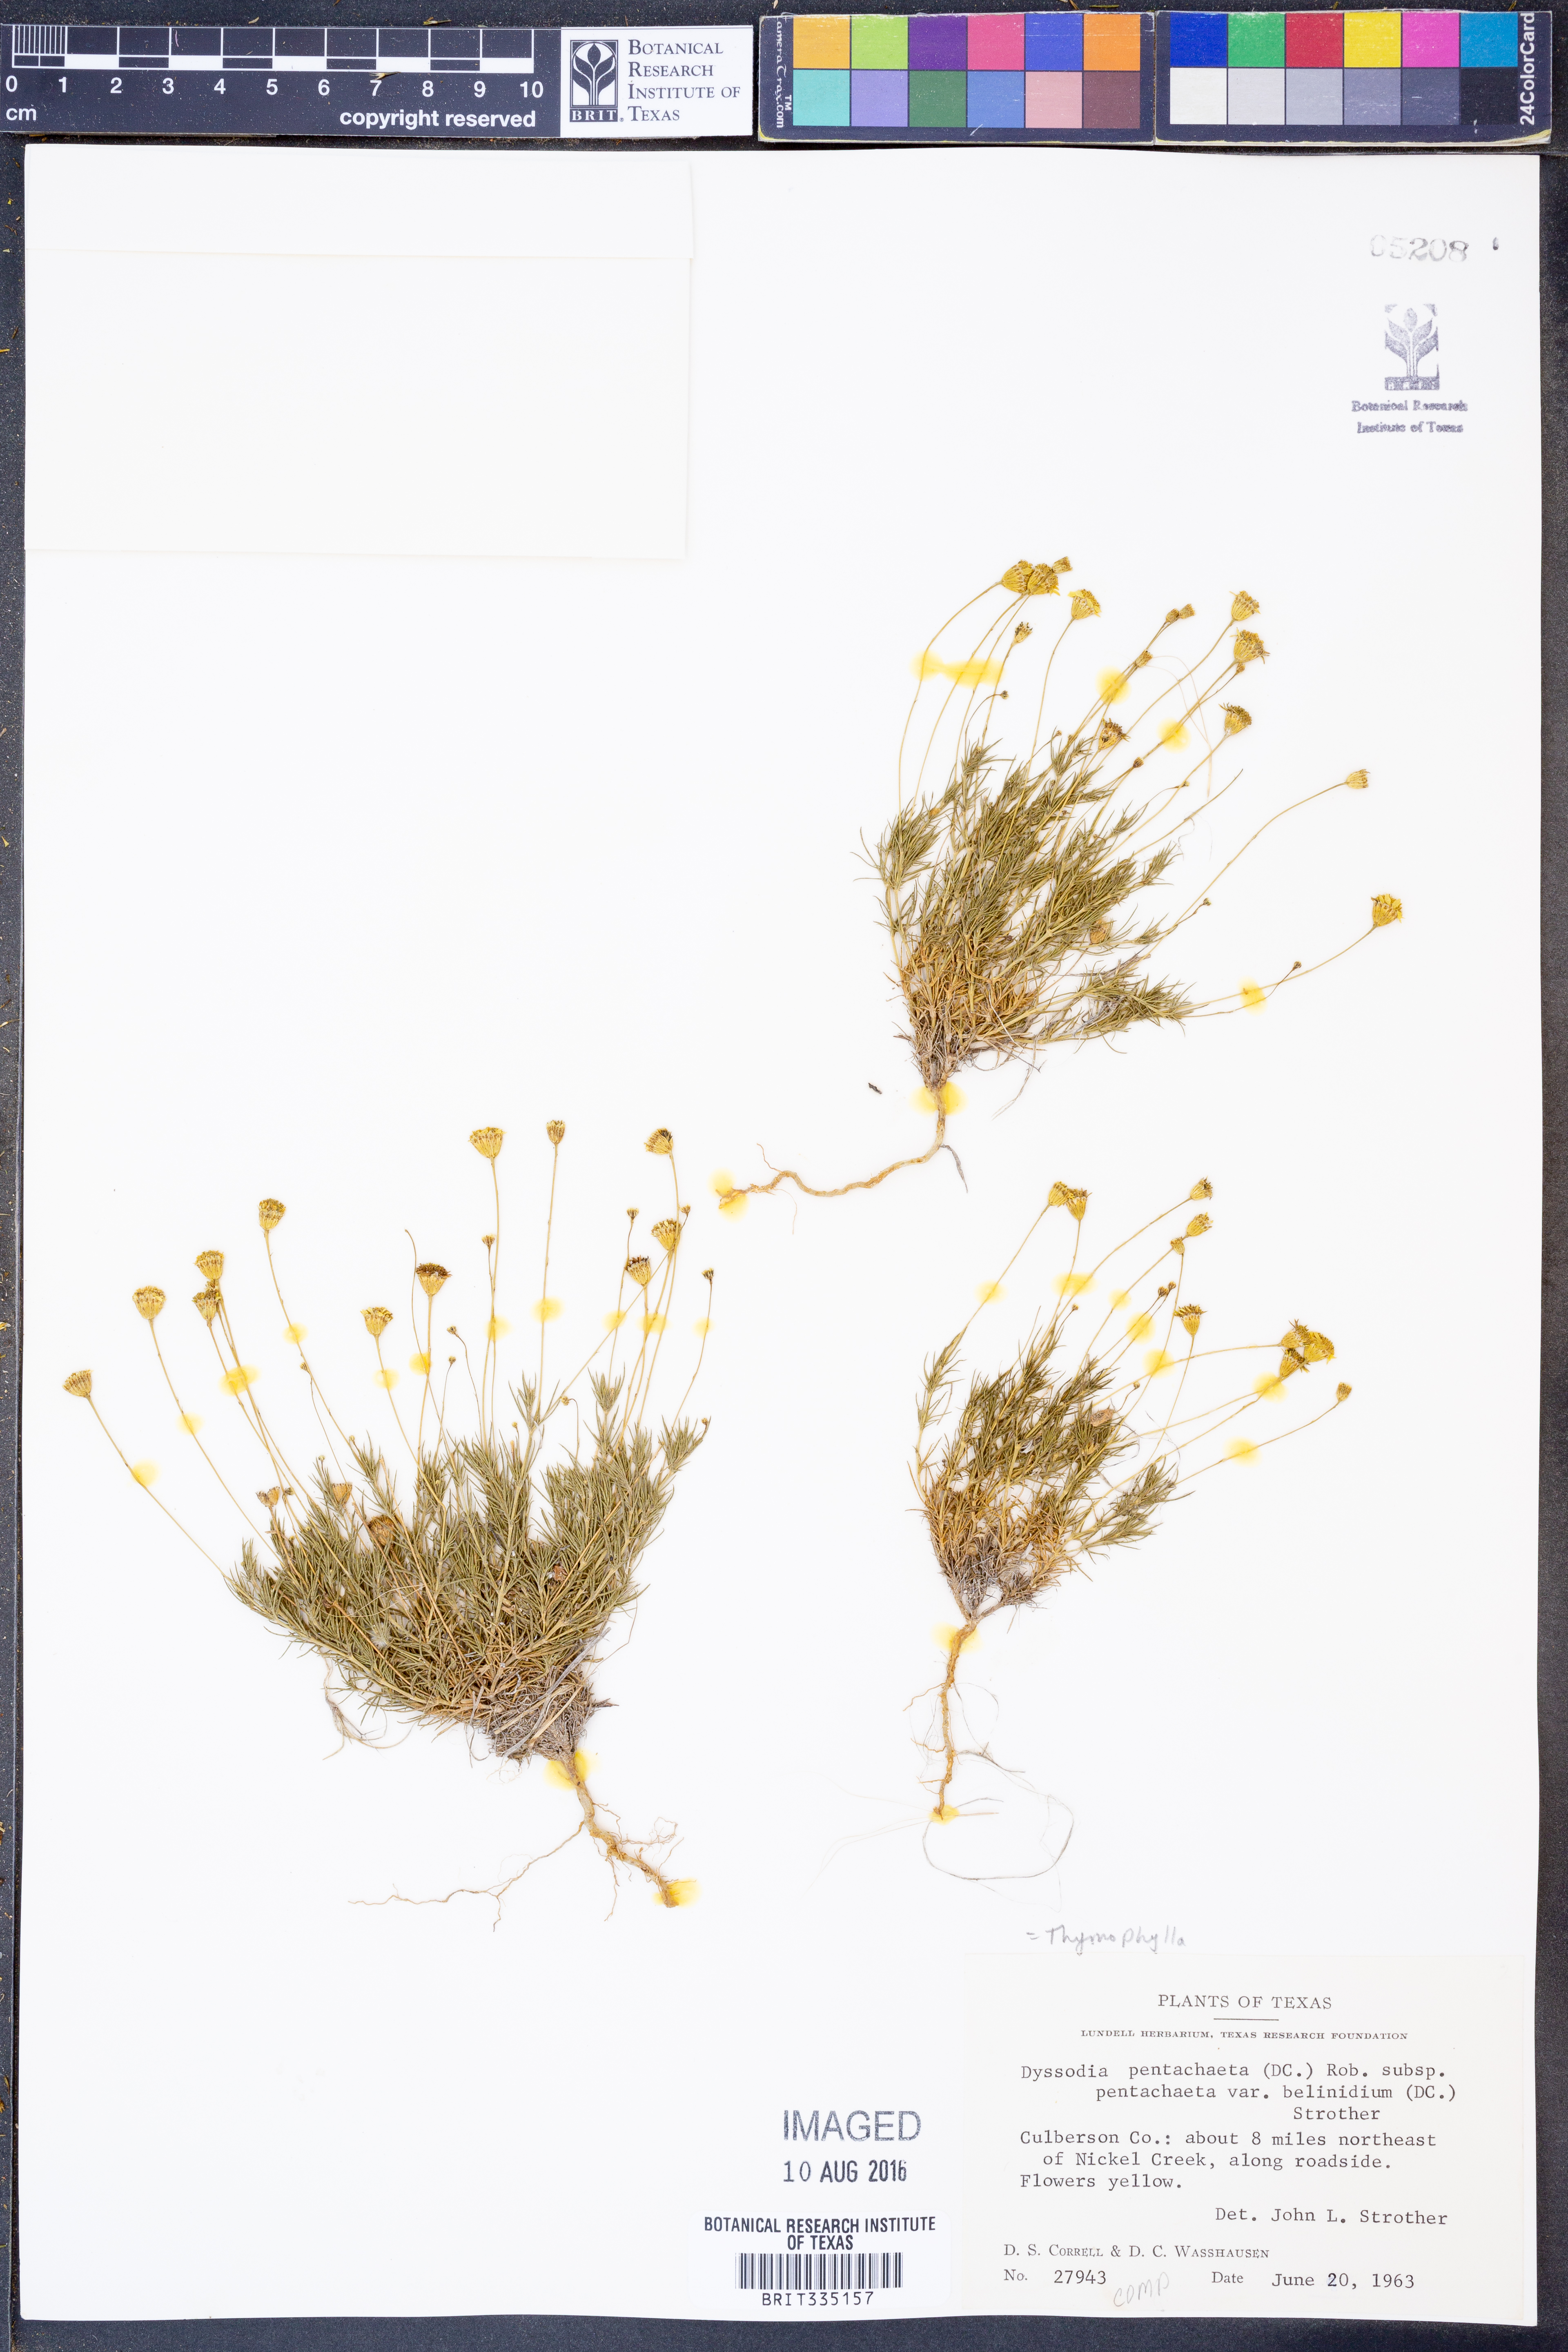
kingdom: Plantae
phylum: Tracheophyta
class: Magnoliopsida
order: Asterales
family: Asteraceae
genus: Thymophylla
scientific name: Thymophylla pentachaeta
